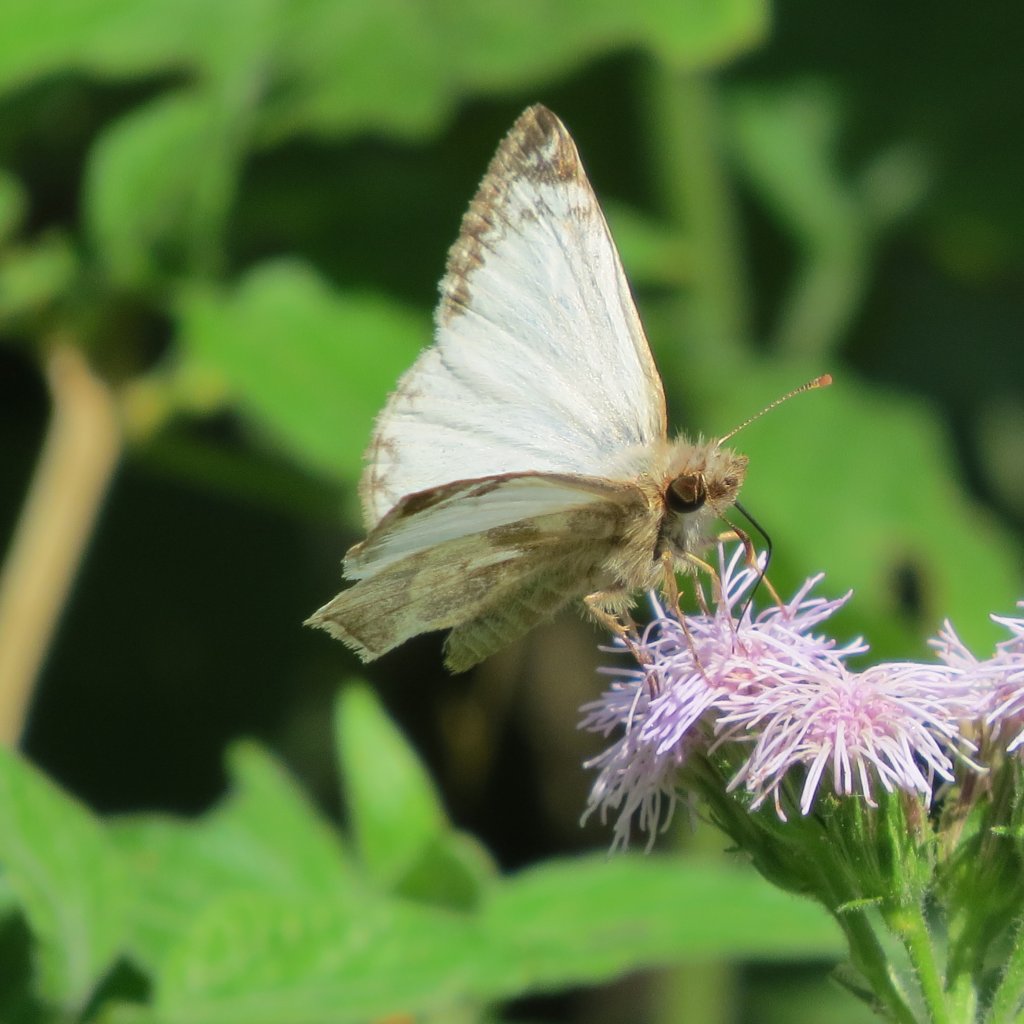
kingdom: Animalia
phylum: Arthropoda
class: Insecta
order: Lepidoptera
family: Hesperiidae
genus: Heliopetes
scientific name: Heliopetes laviana
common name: Laviana White-Skipper
